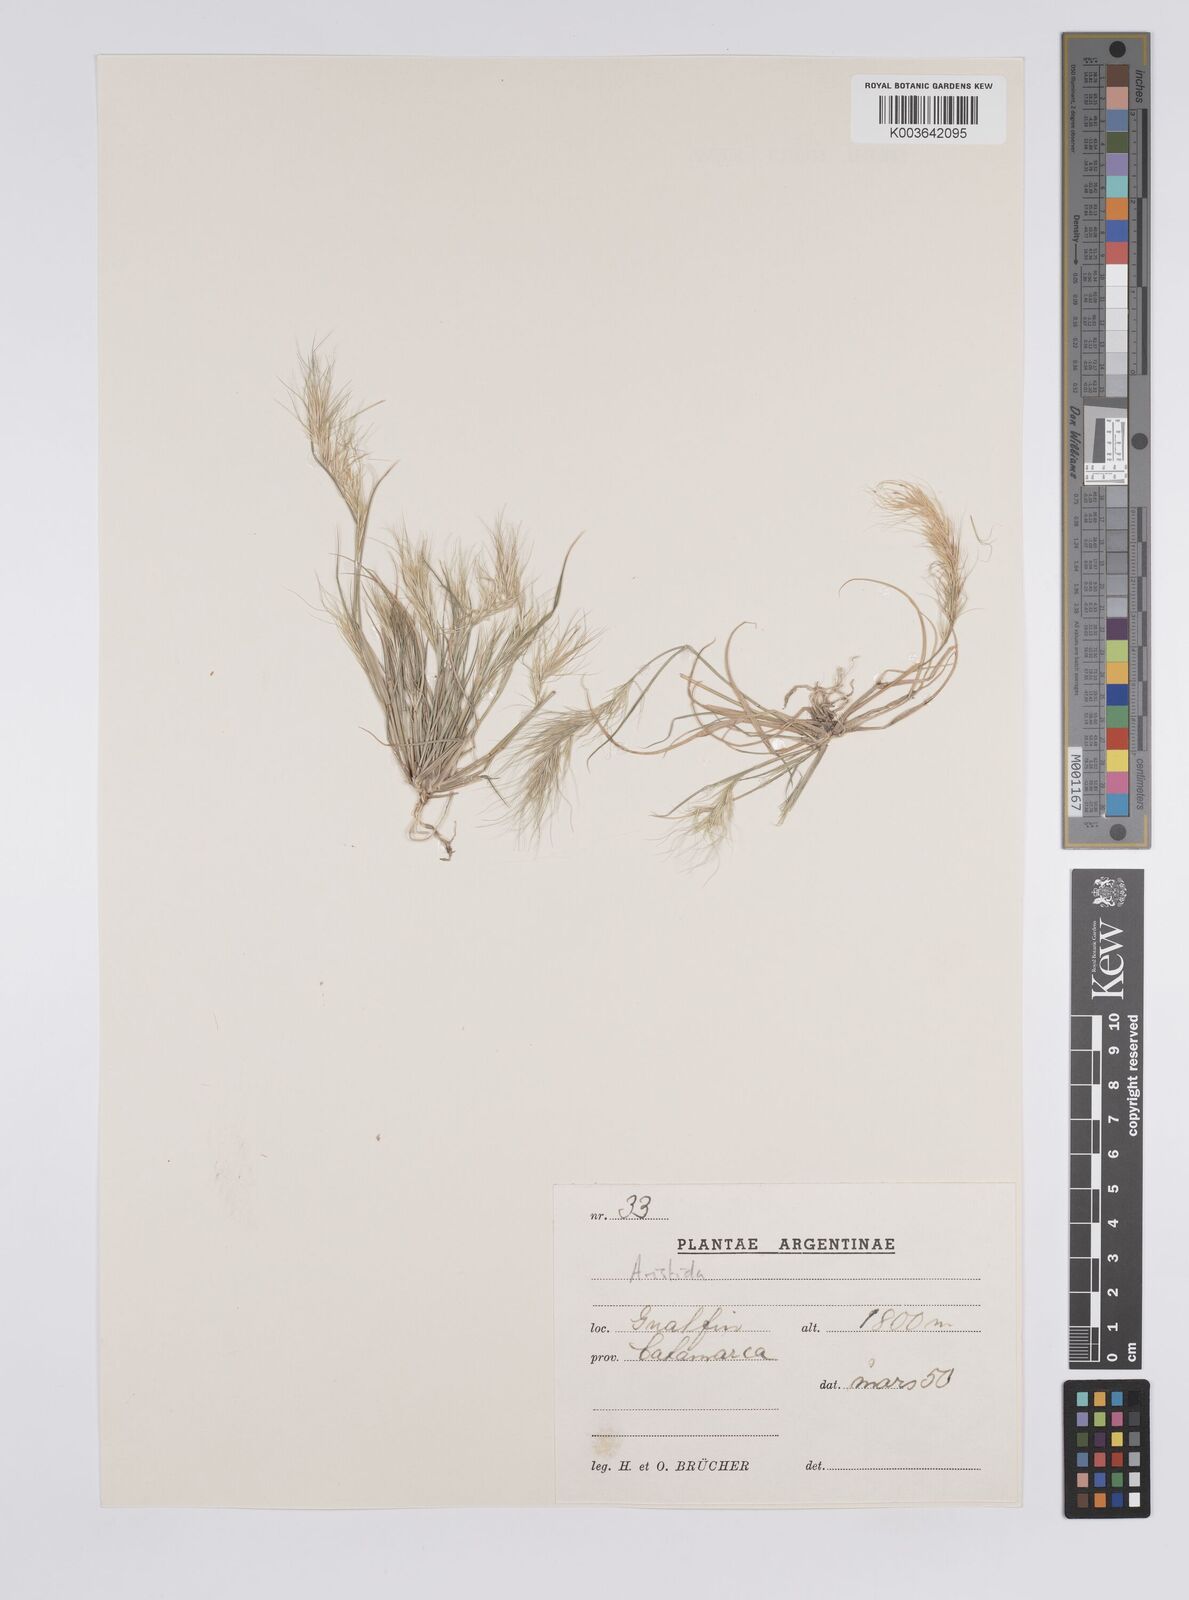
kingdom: Plantae
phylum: Tracheophyta
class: Liliopsida
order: Poales
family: Poaceae
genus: Aristida
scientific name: Aristida adscensionis
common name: Sixweeks threeawn
